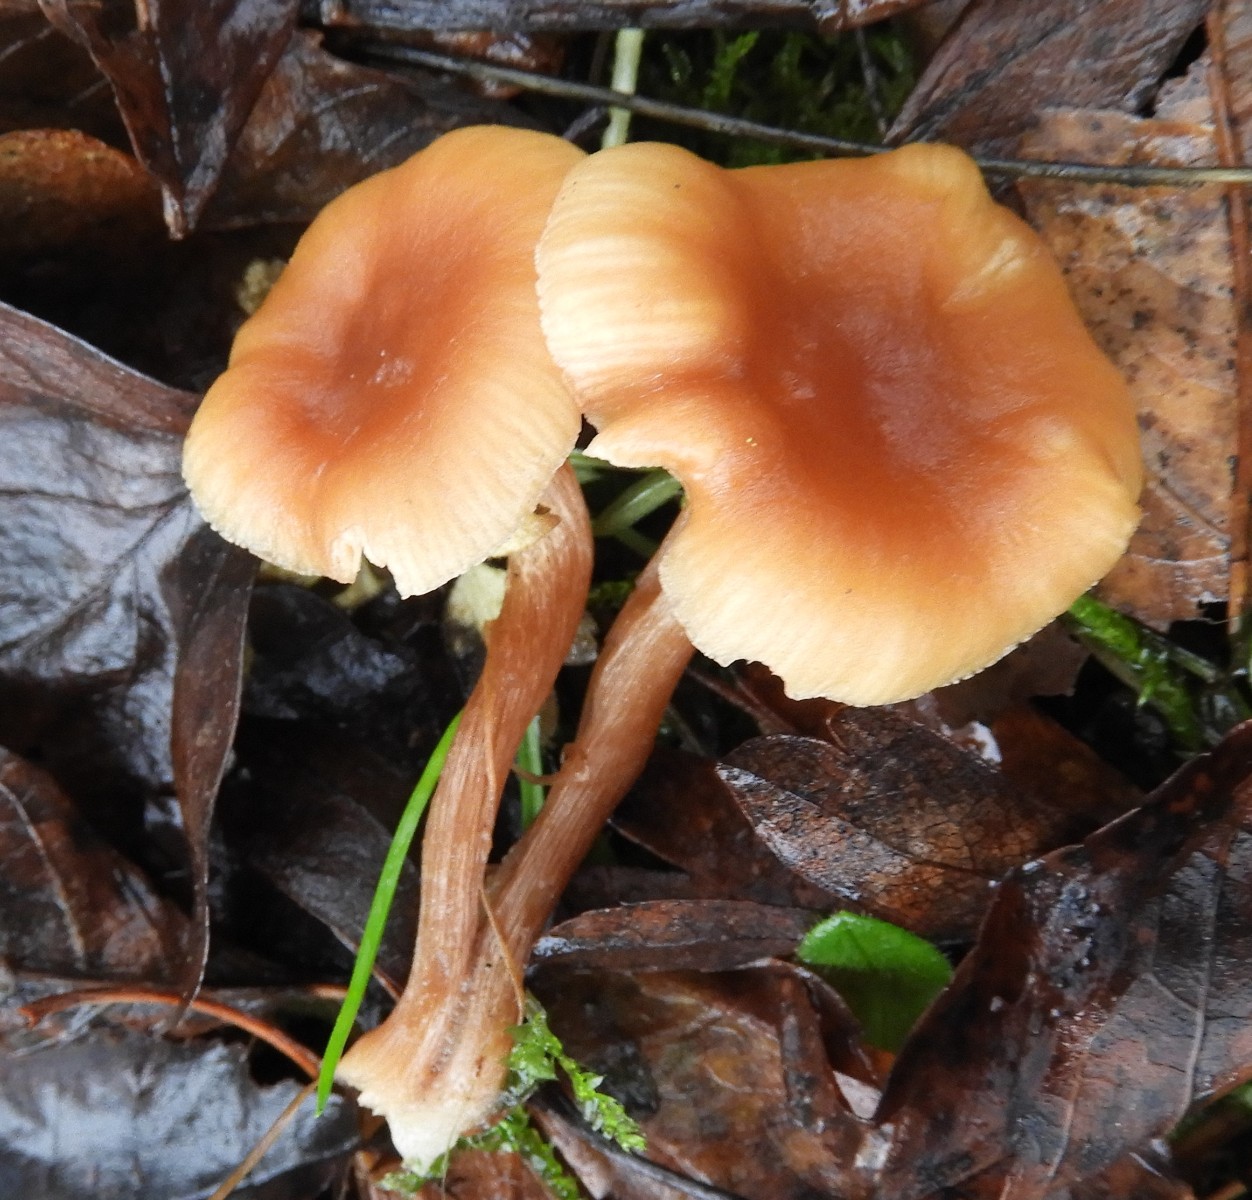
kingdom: Fungi
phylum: Basidiomycota
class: Agaricomycetes
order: Agaricales
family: Hydnangiaceae
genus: Laccaria
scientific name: Laccaria laccata
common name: rød ametysthat
